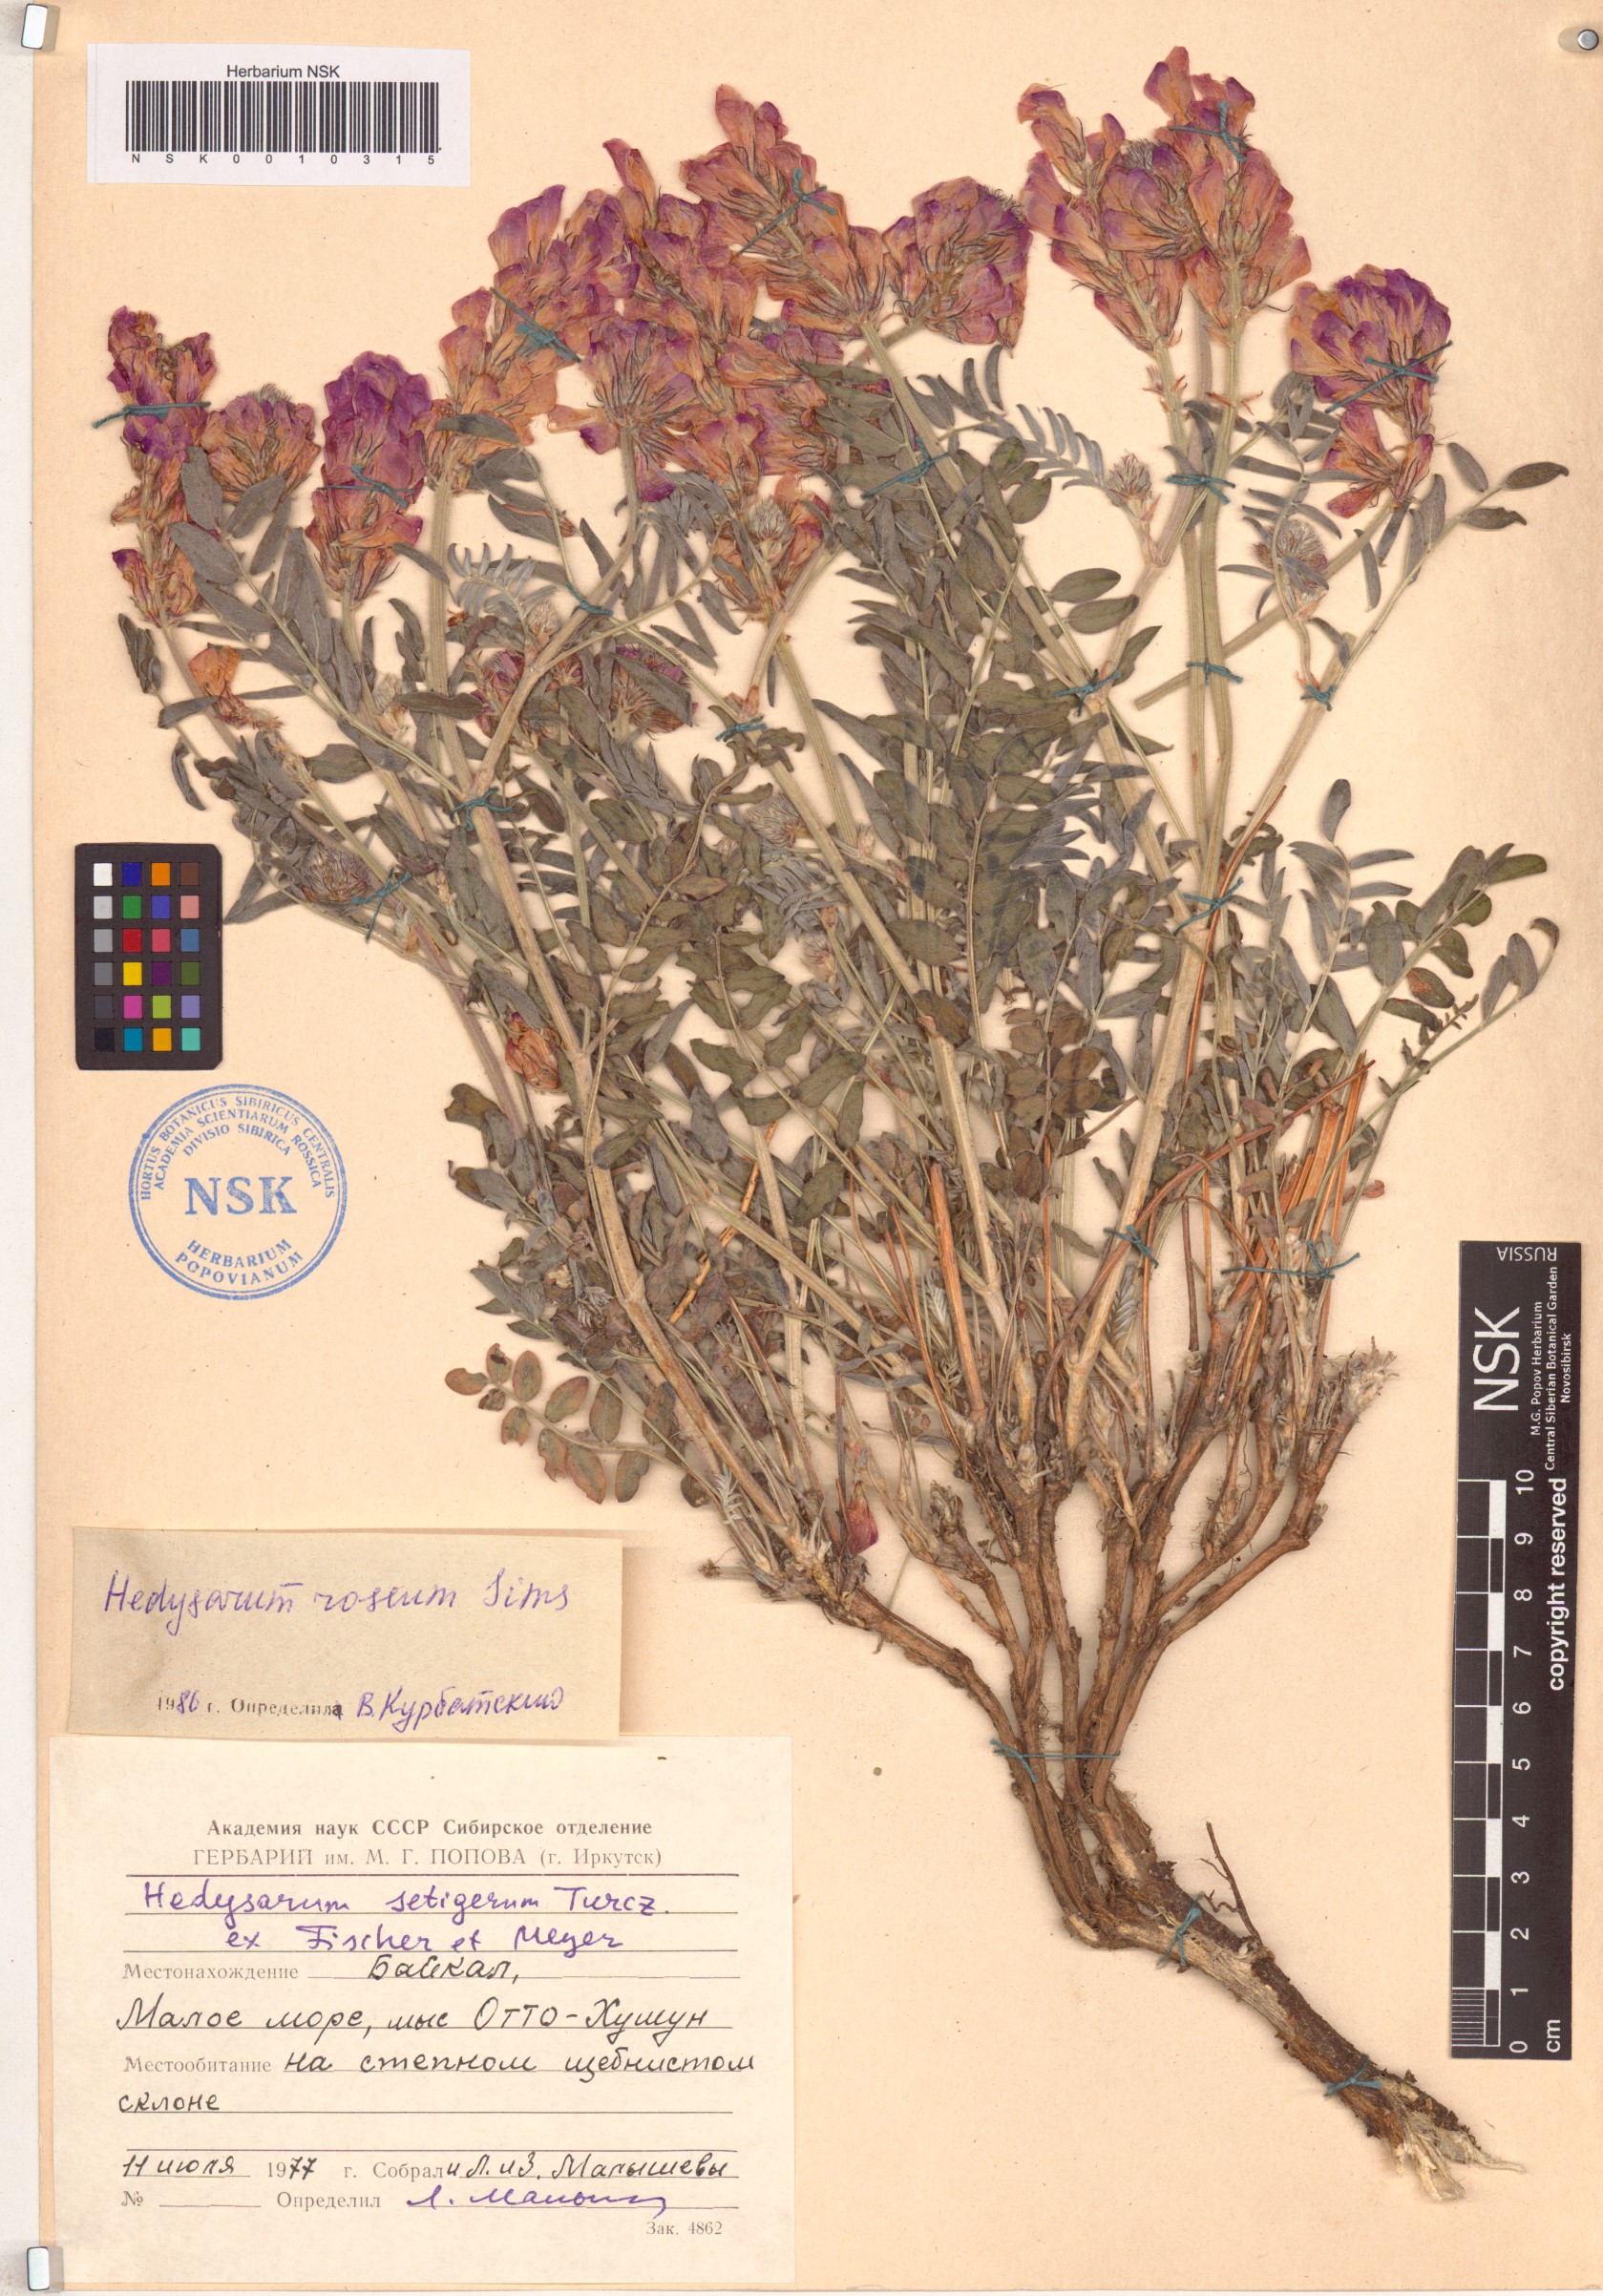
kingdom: Plantae
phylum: Tracheophyta
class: Magnoliopsida
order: Fabales
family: Fabaceae
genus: Hedysarum
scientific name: Hedysarum roseum
